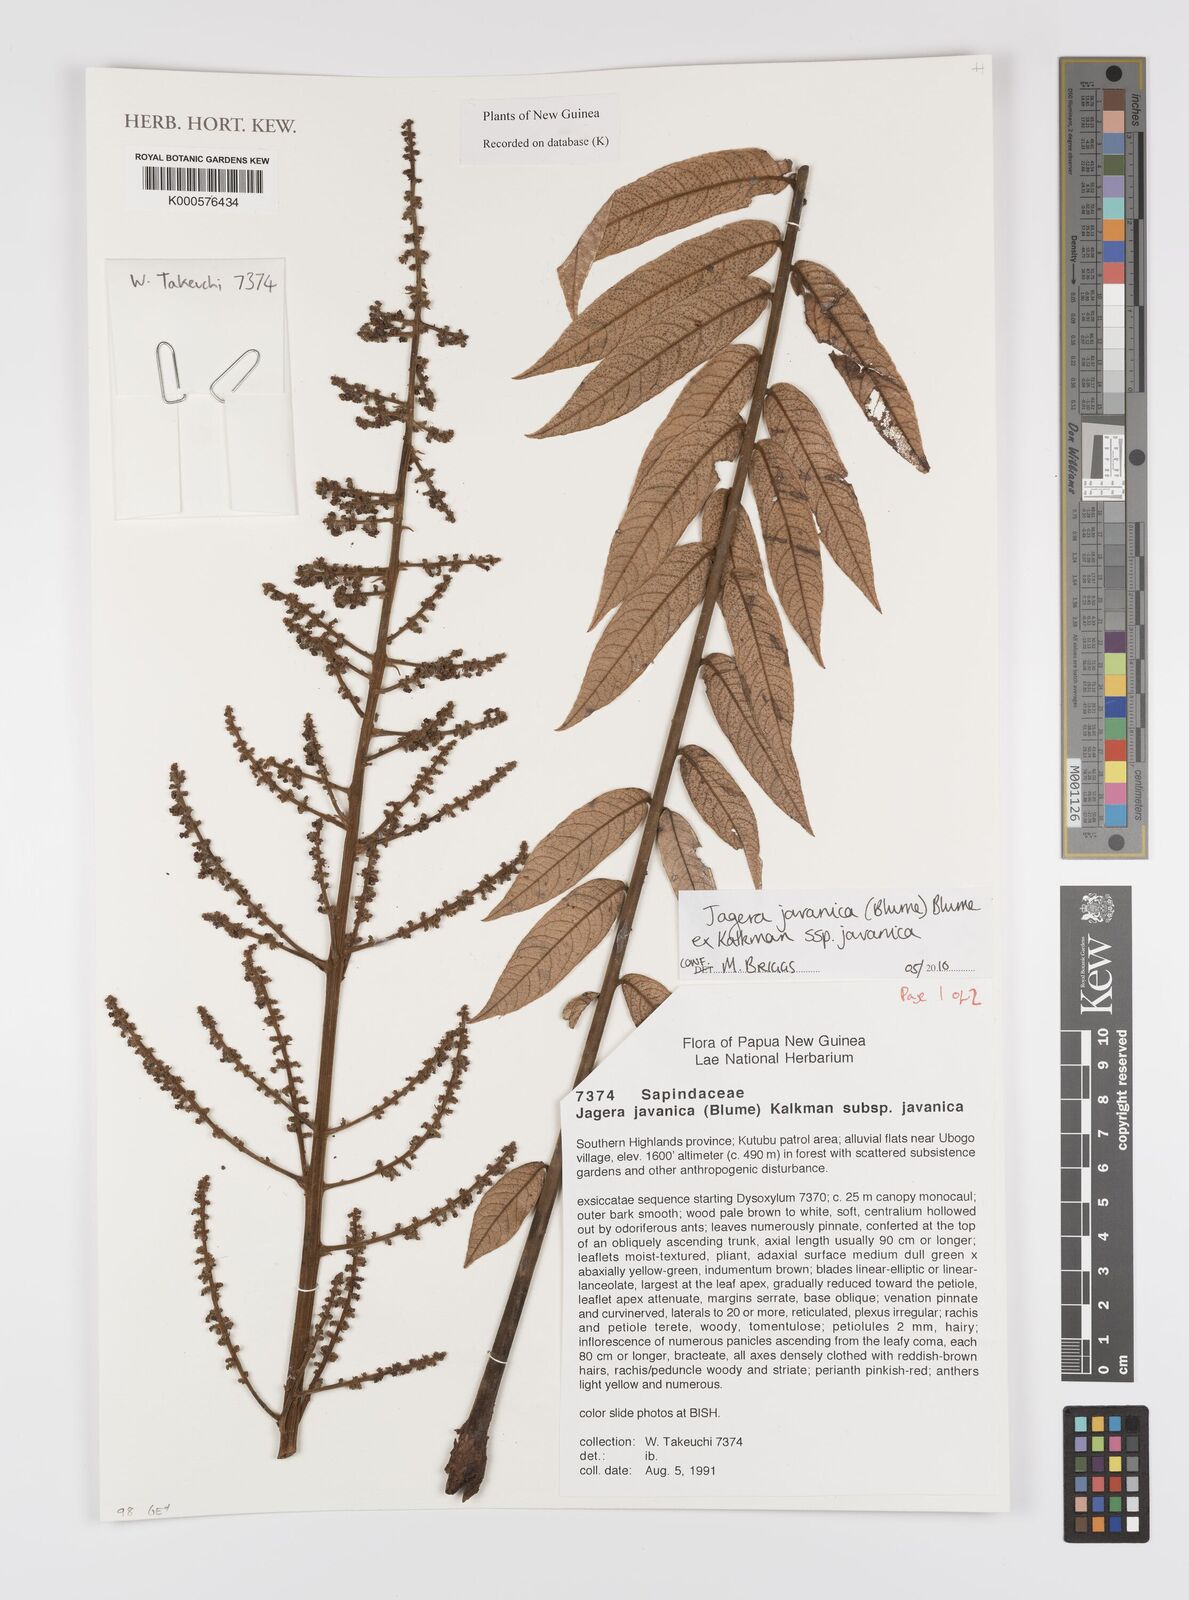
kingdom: Plantae
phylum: Tracheophyta
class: Magnoliopsida
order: Sapindales
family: Sapindaceae
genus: Jagera
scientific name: Jagera javanica
